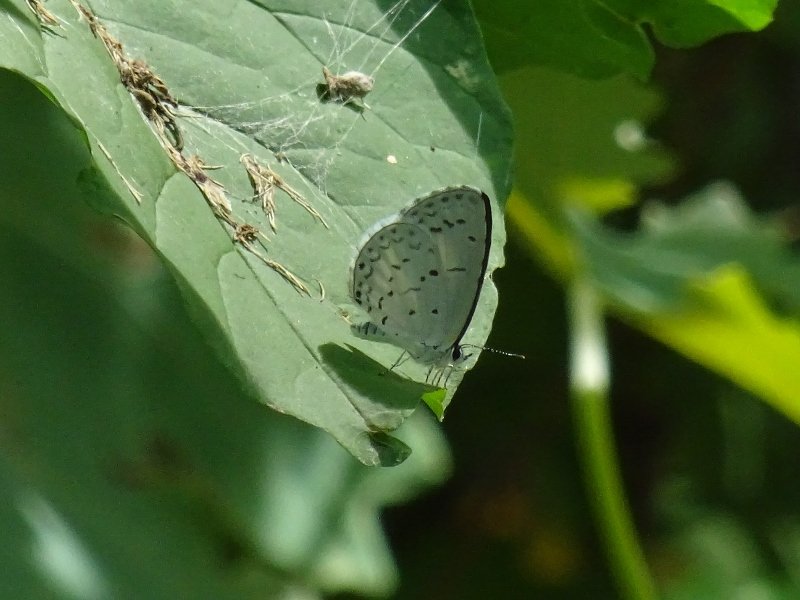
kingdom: Animalia
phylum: Arthropoda
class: Insecta
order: Lepidoptera
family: Lycaenidae
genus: Celastrina
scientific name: Celastrina
